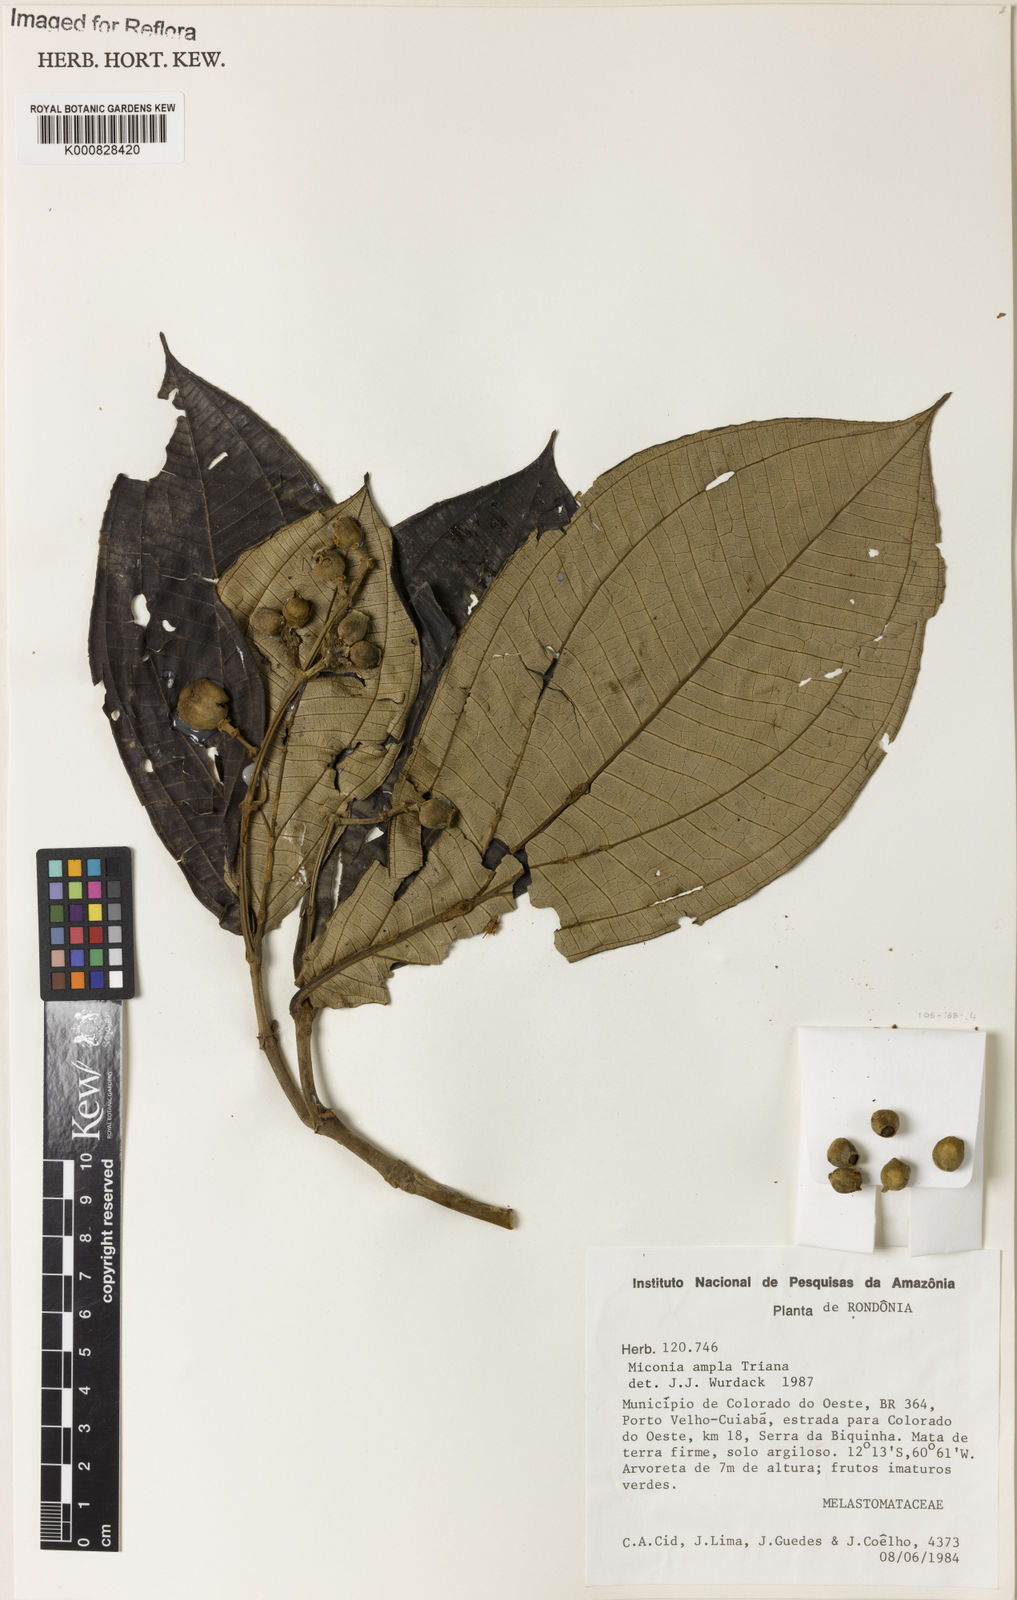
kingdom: Plantae
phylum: Tracheophyta
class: Magnoliopsida
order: Myrtales
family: Melastomataceae
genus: Miconia
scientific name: Miconia ampla
